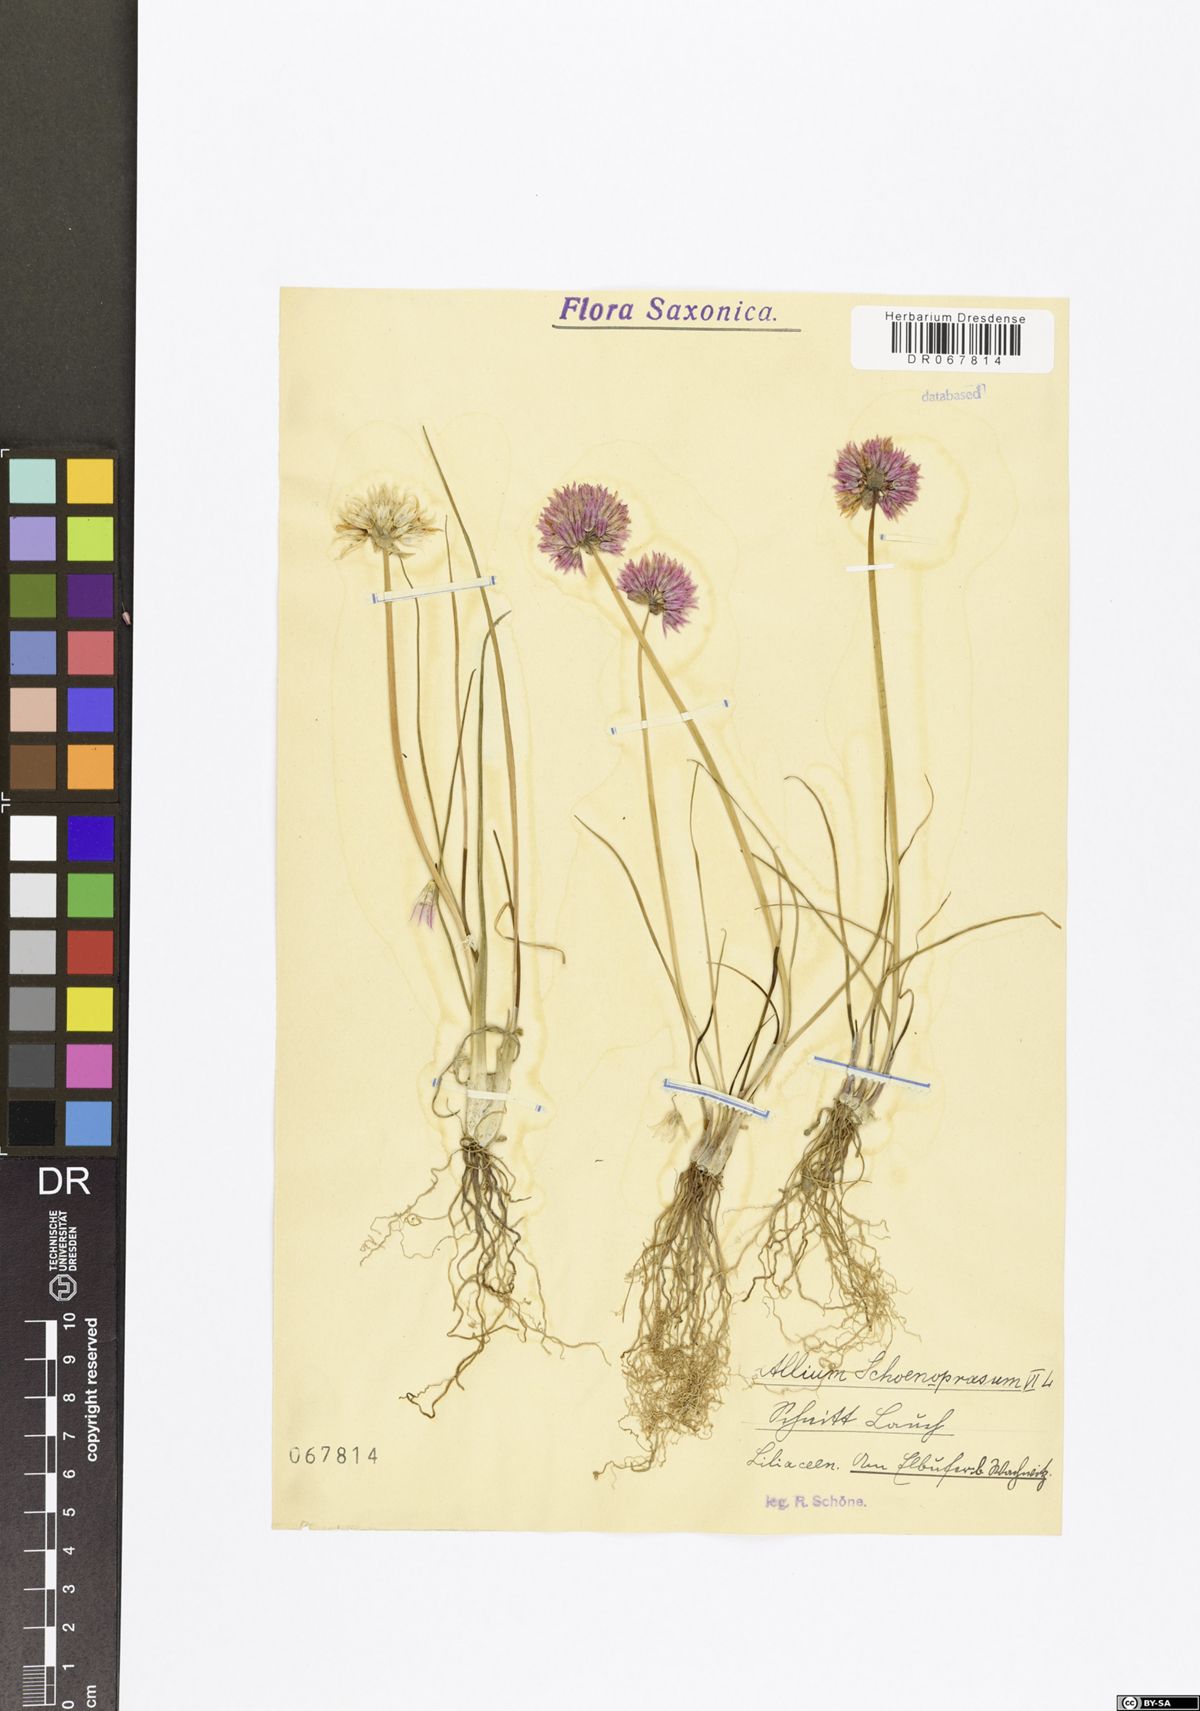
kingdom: Plantae
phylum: Tracheophyta
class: Liliopsida
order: Asparagales
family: Amaryllidaceae
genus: Allium
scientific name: Allium schoenoprasum
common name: Chives
